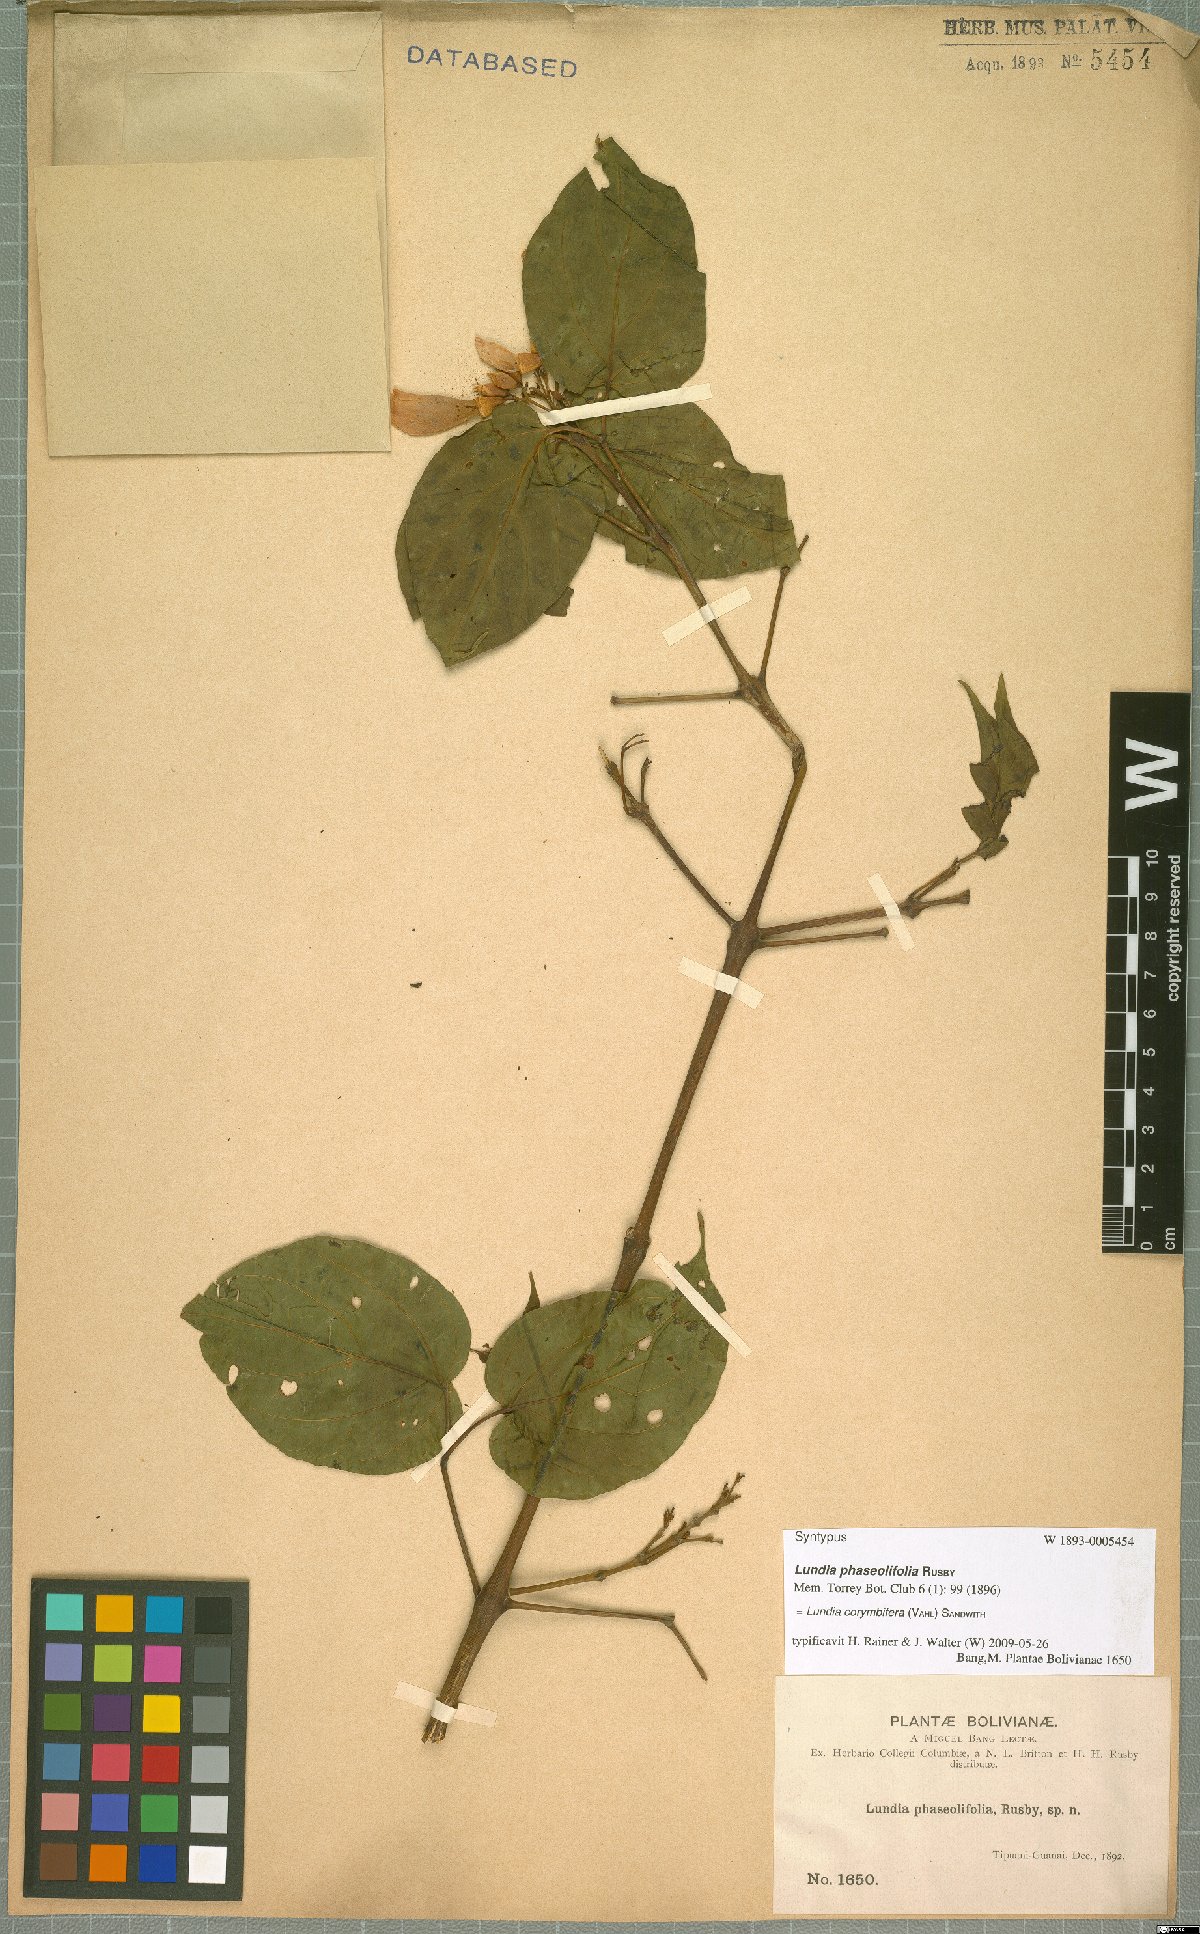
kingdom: Plantae
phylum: Tracheophyta
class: Magnoliopsida
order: Lamiales
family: Bignoniaceae
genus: Lundia
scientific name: Lundia corymbifera
